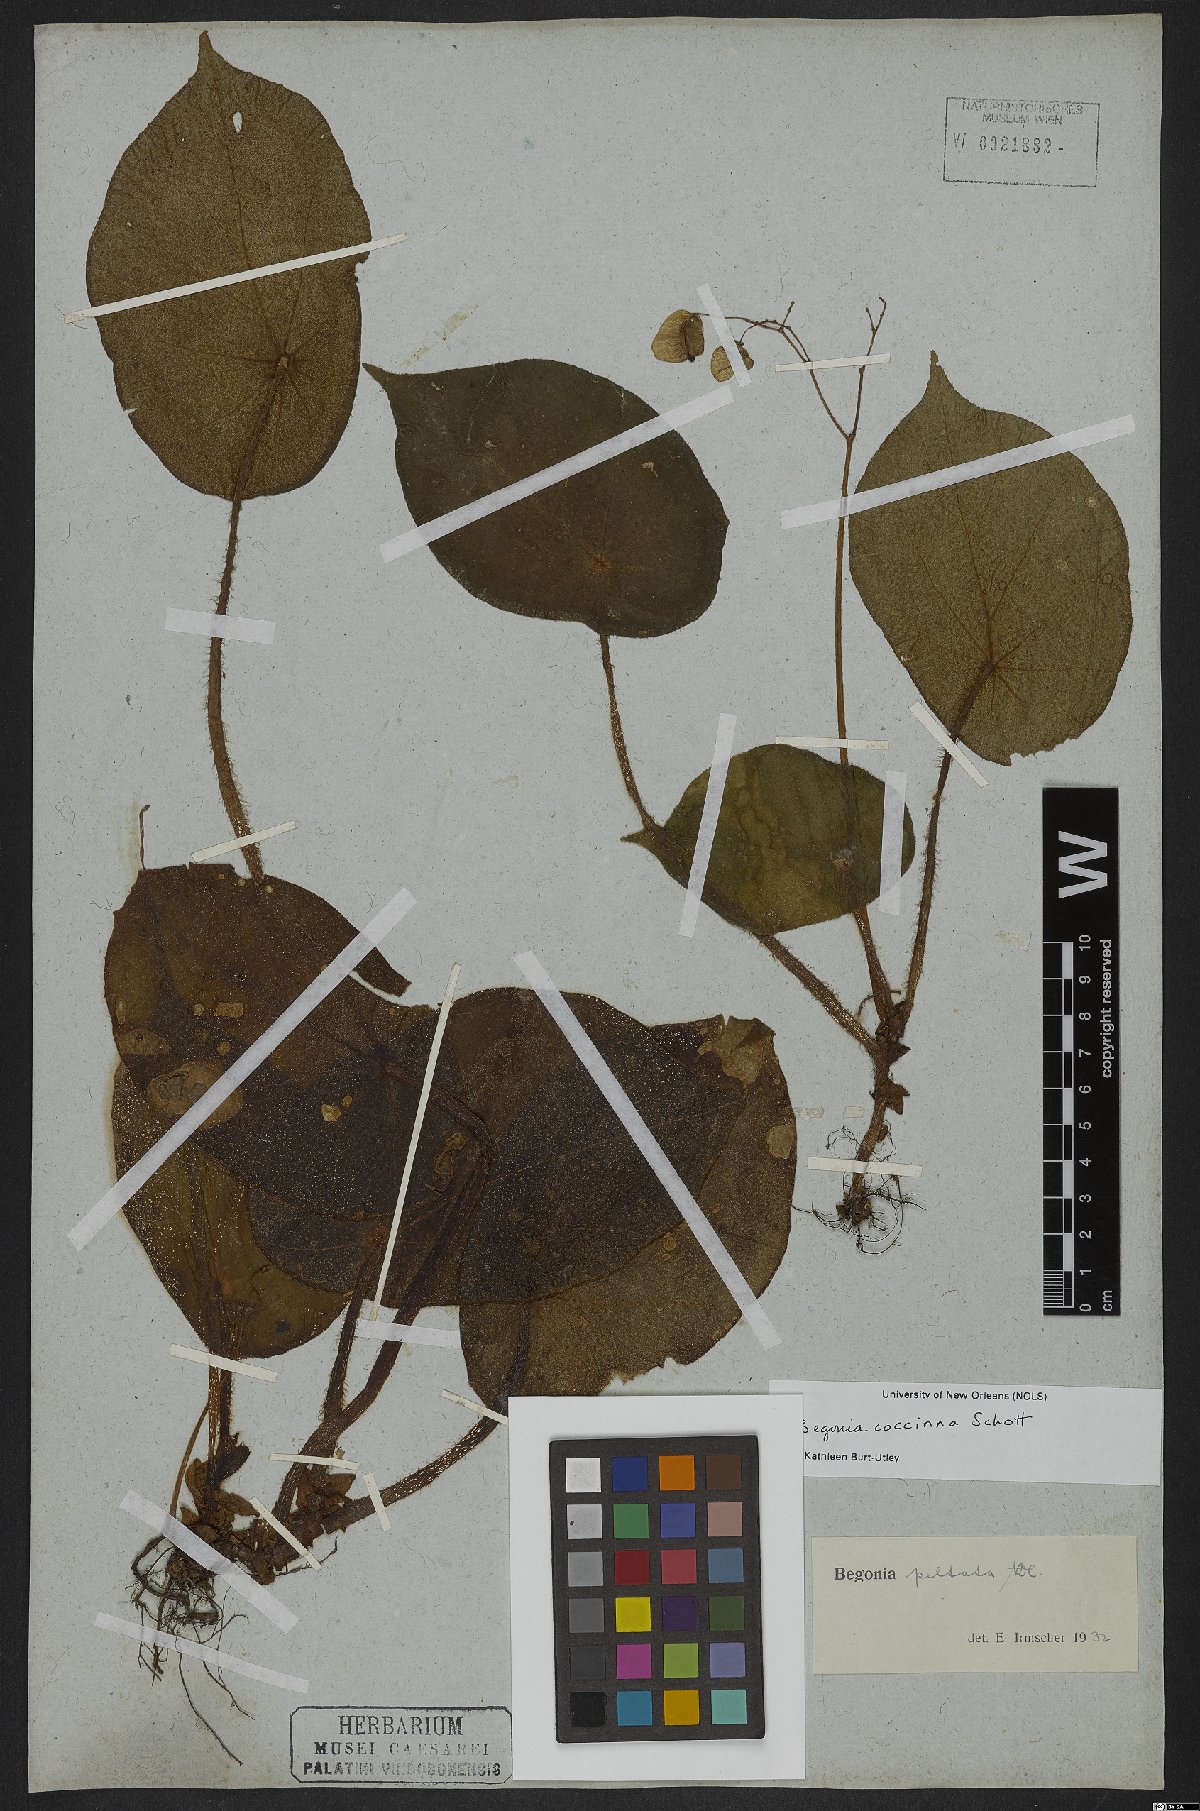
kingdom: Plantae
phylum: Tracheophyta
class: Magnoliopsida
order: Cucurbitales
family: Begoniaceae
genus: Begonia
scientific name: Begonia coccinea
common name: Angel-wing begonia
